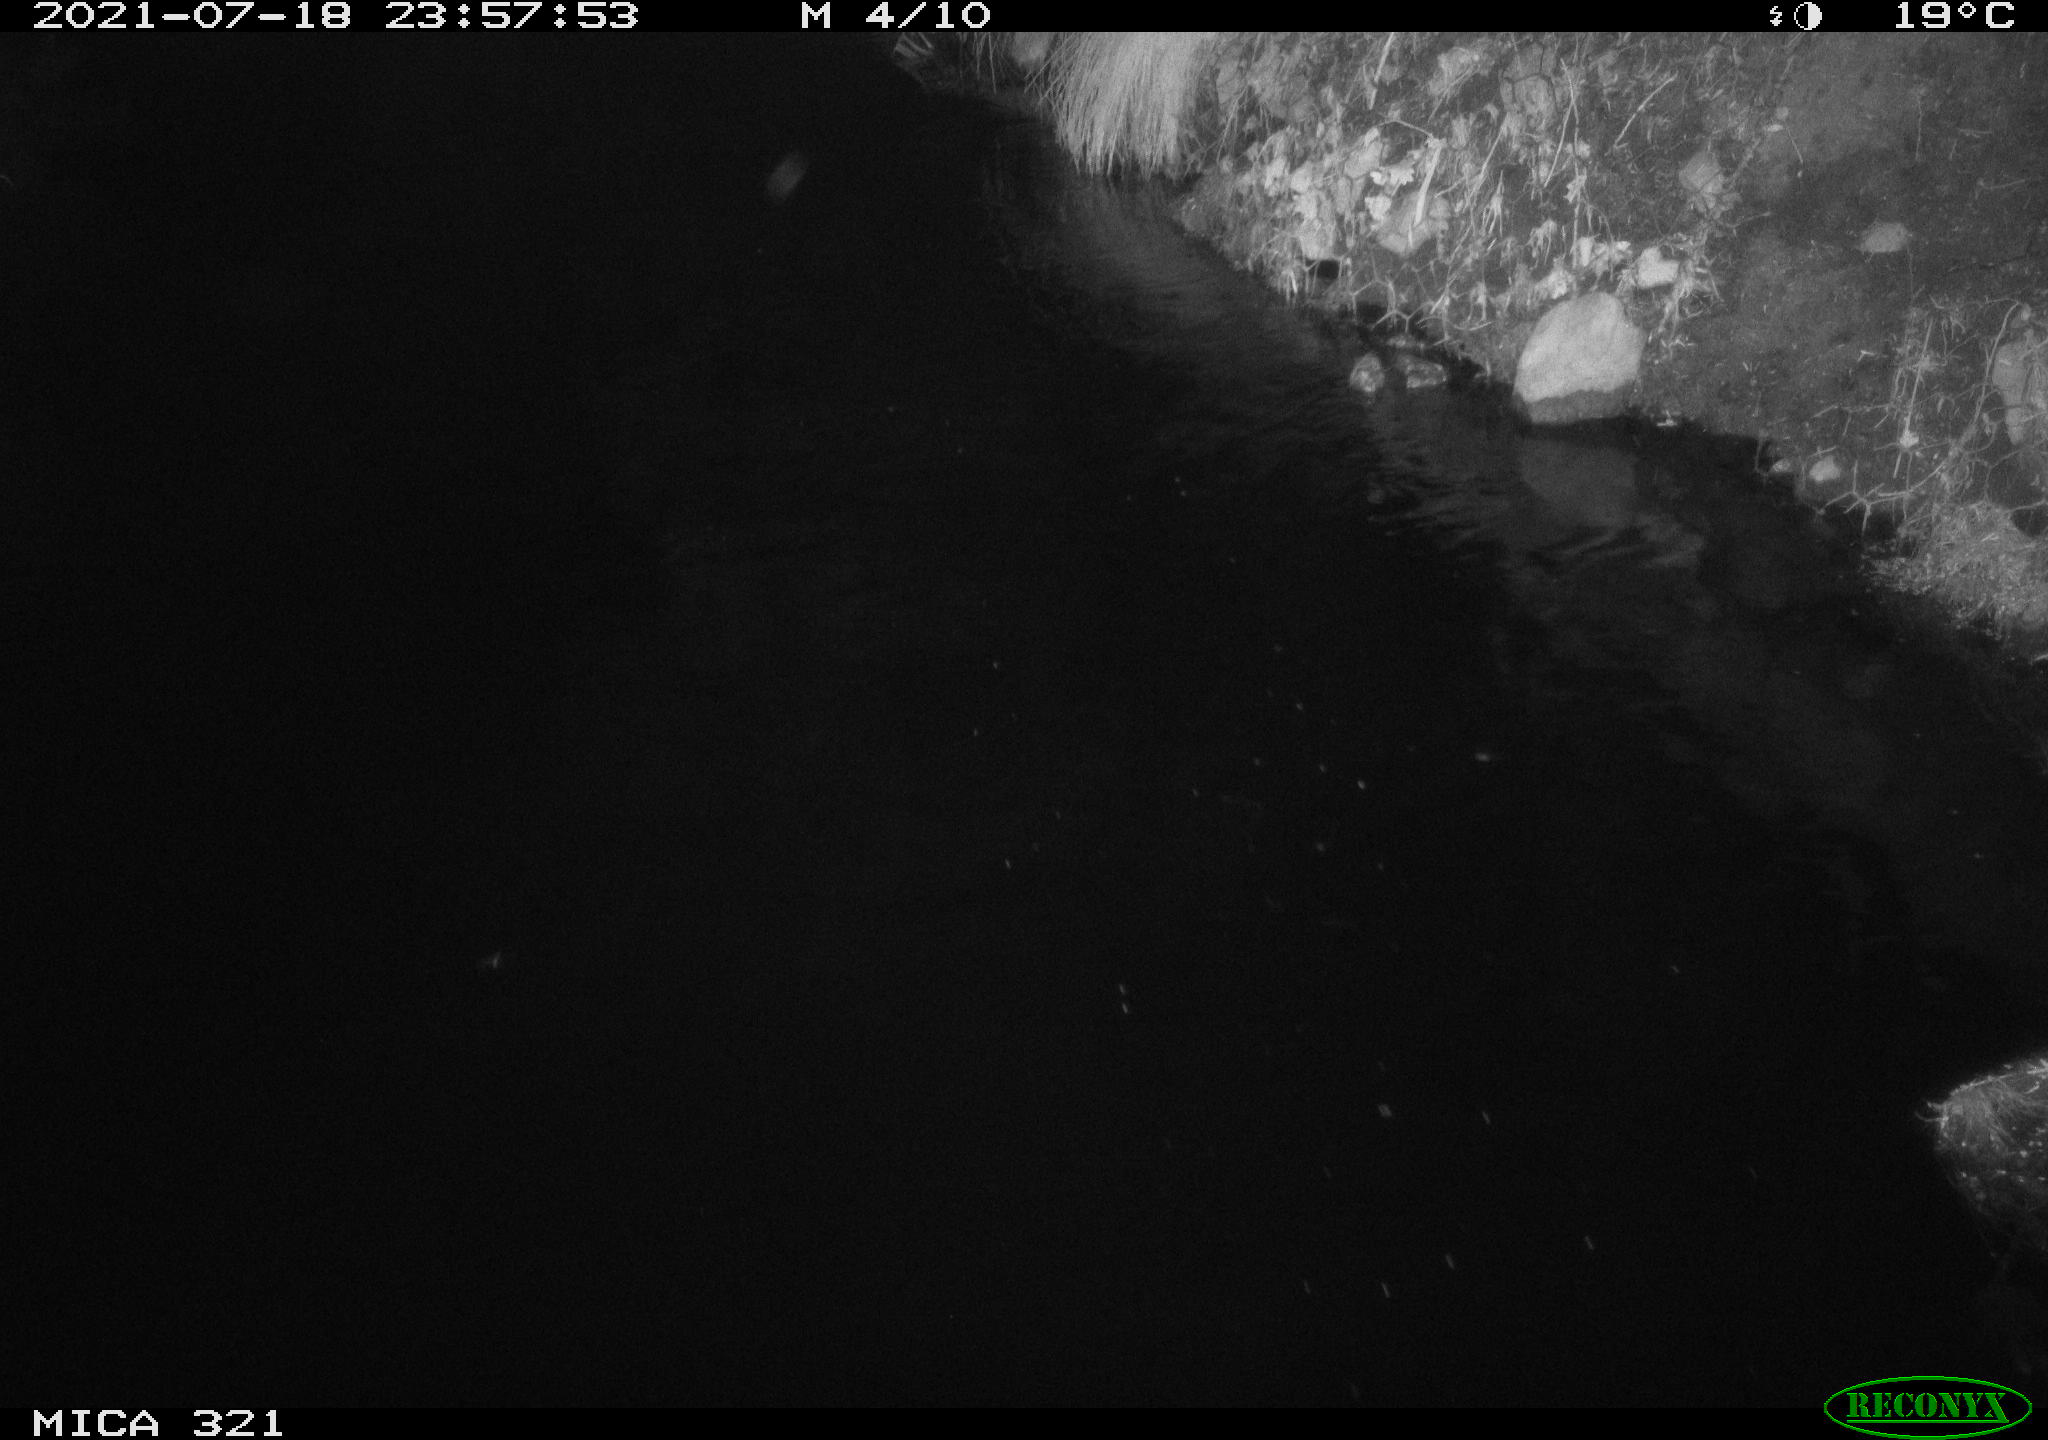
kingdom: Animalia
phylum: Chordata
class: Aves
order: Anseriformes
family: Anatidae
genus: Anas
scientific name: Anas platyrhynchos
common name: Mallard
